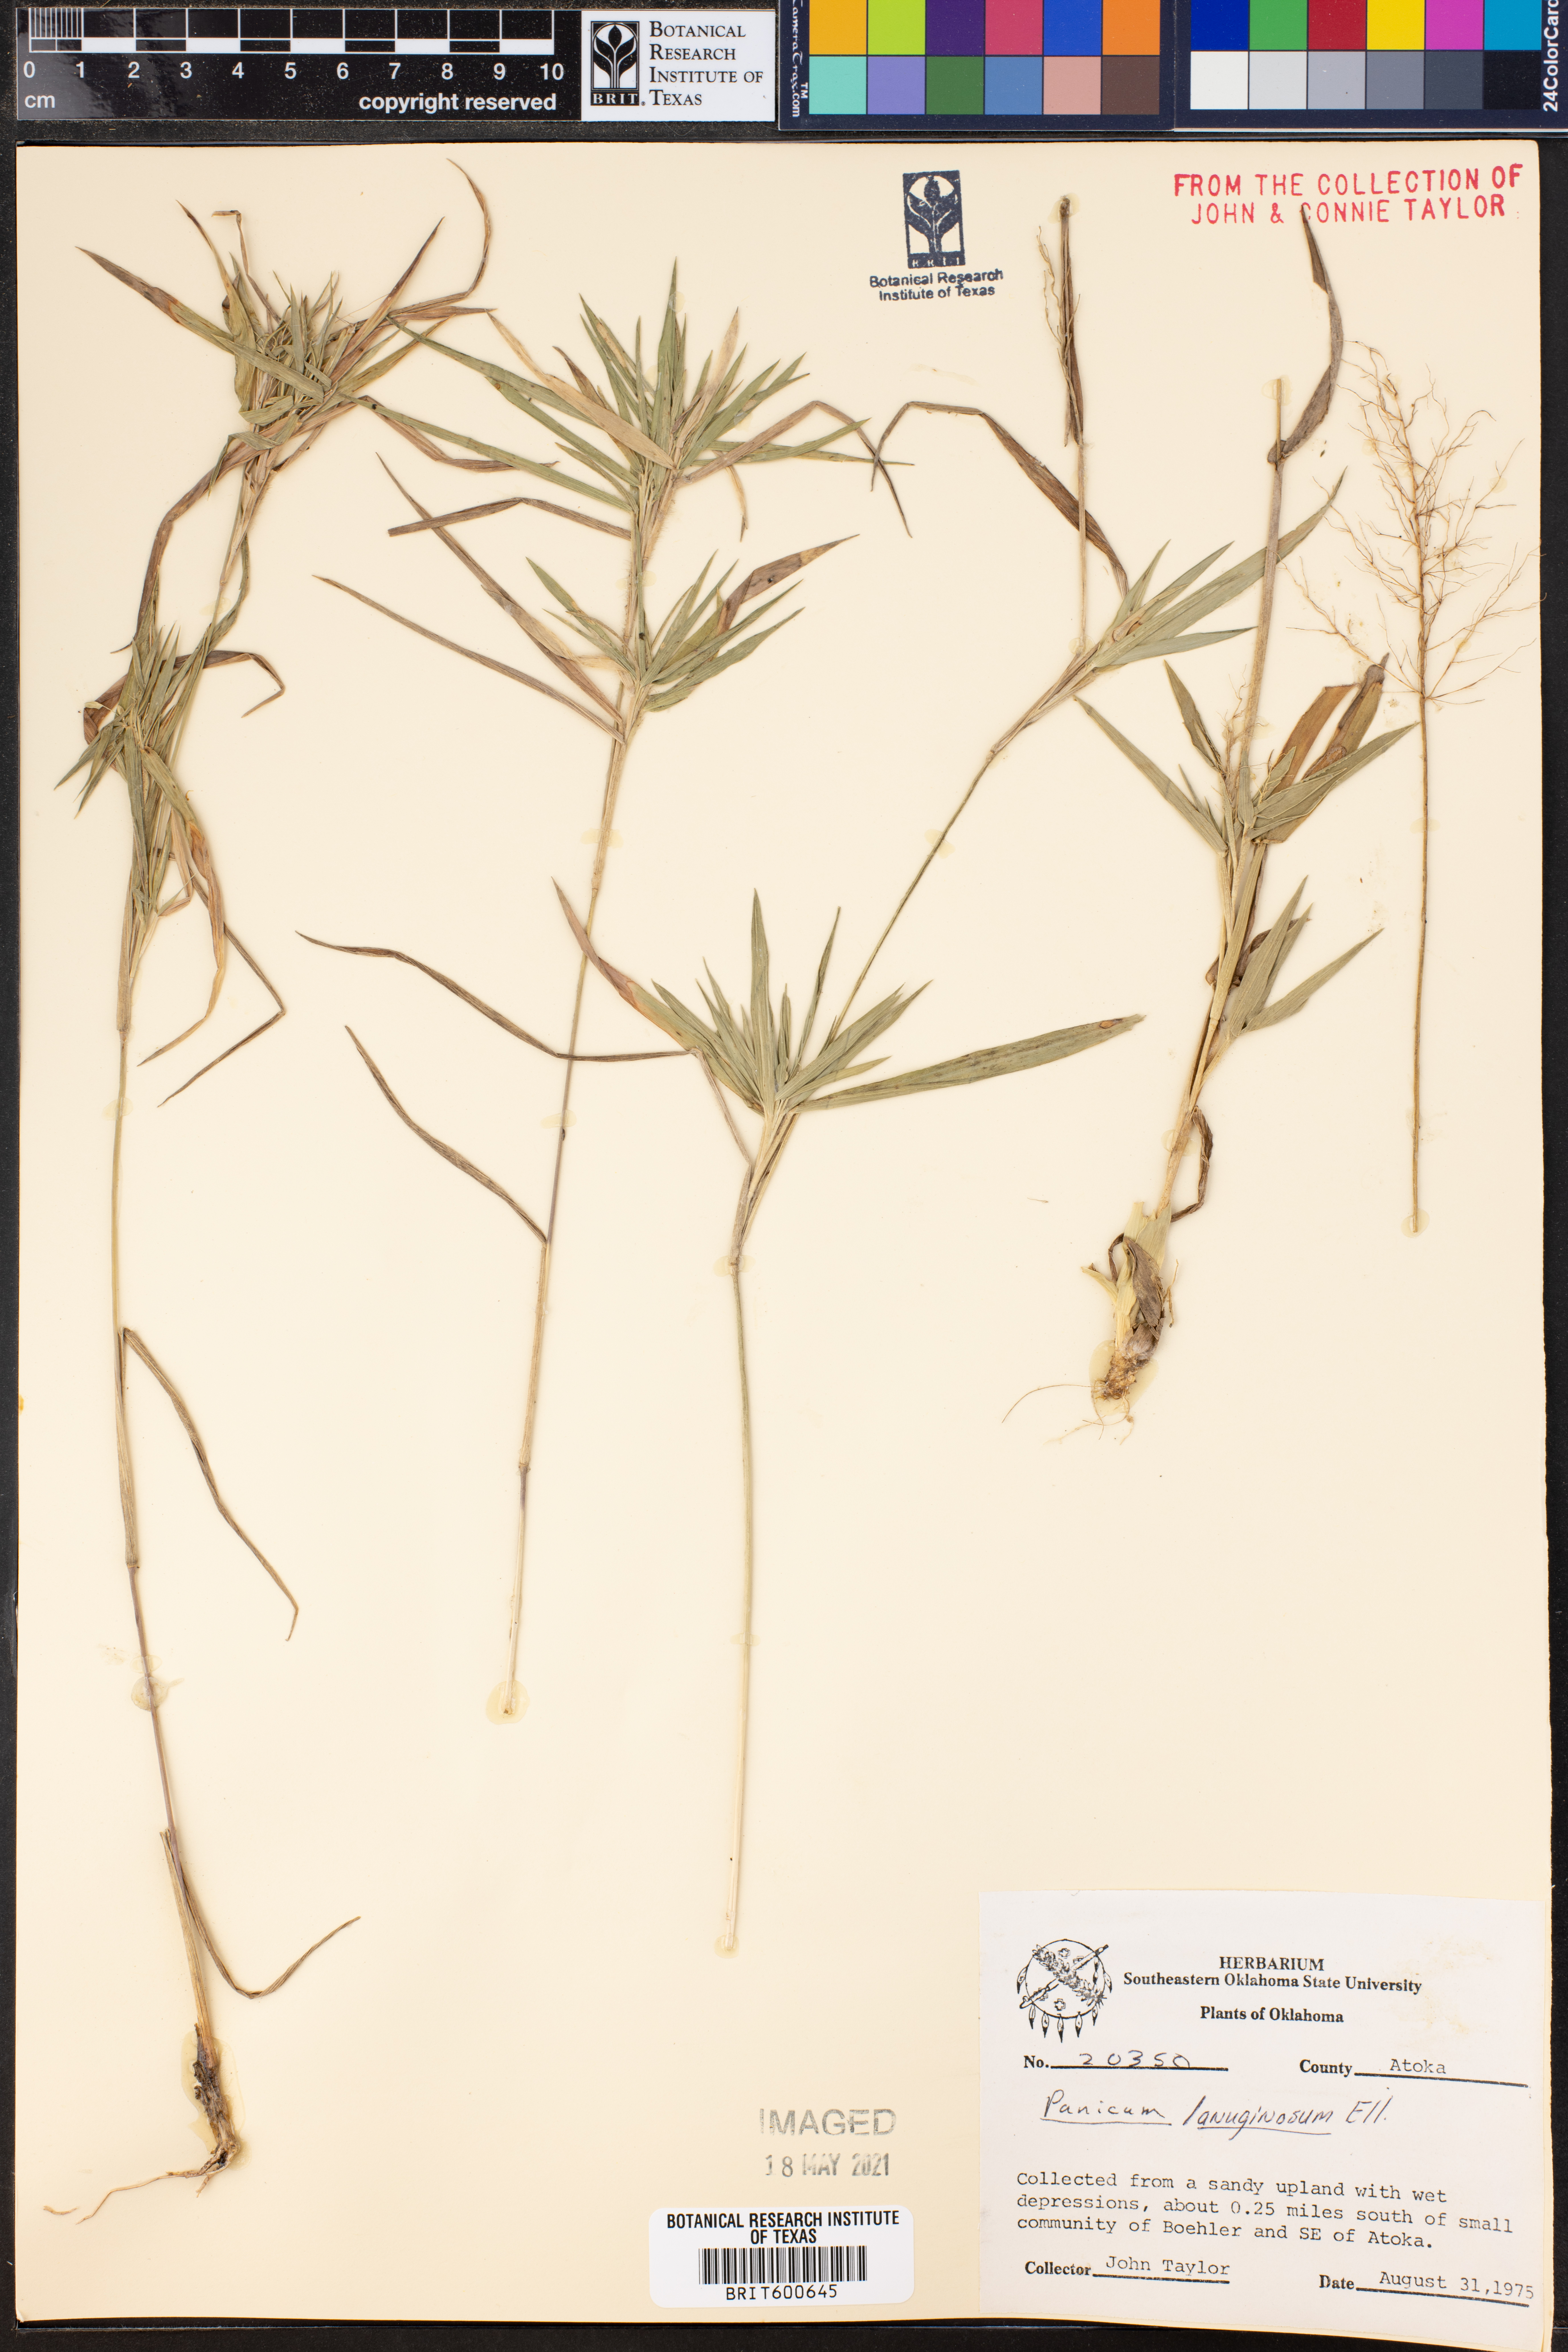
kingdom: Plantae
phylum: Tracheophyta
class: Liliopsida
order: Poales
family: Poaceae
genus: Dichanthelium
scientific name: Dichanthelium lanuginosum
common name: Woolly panicgrass
